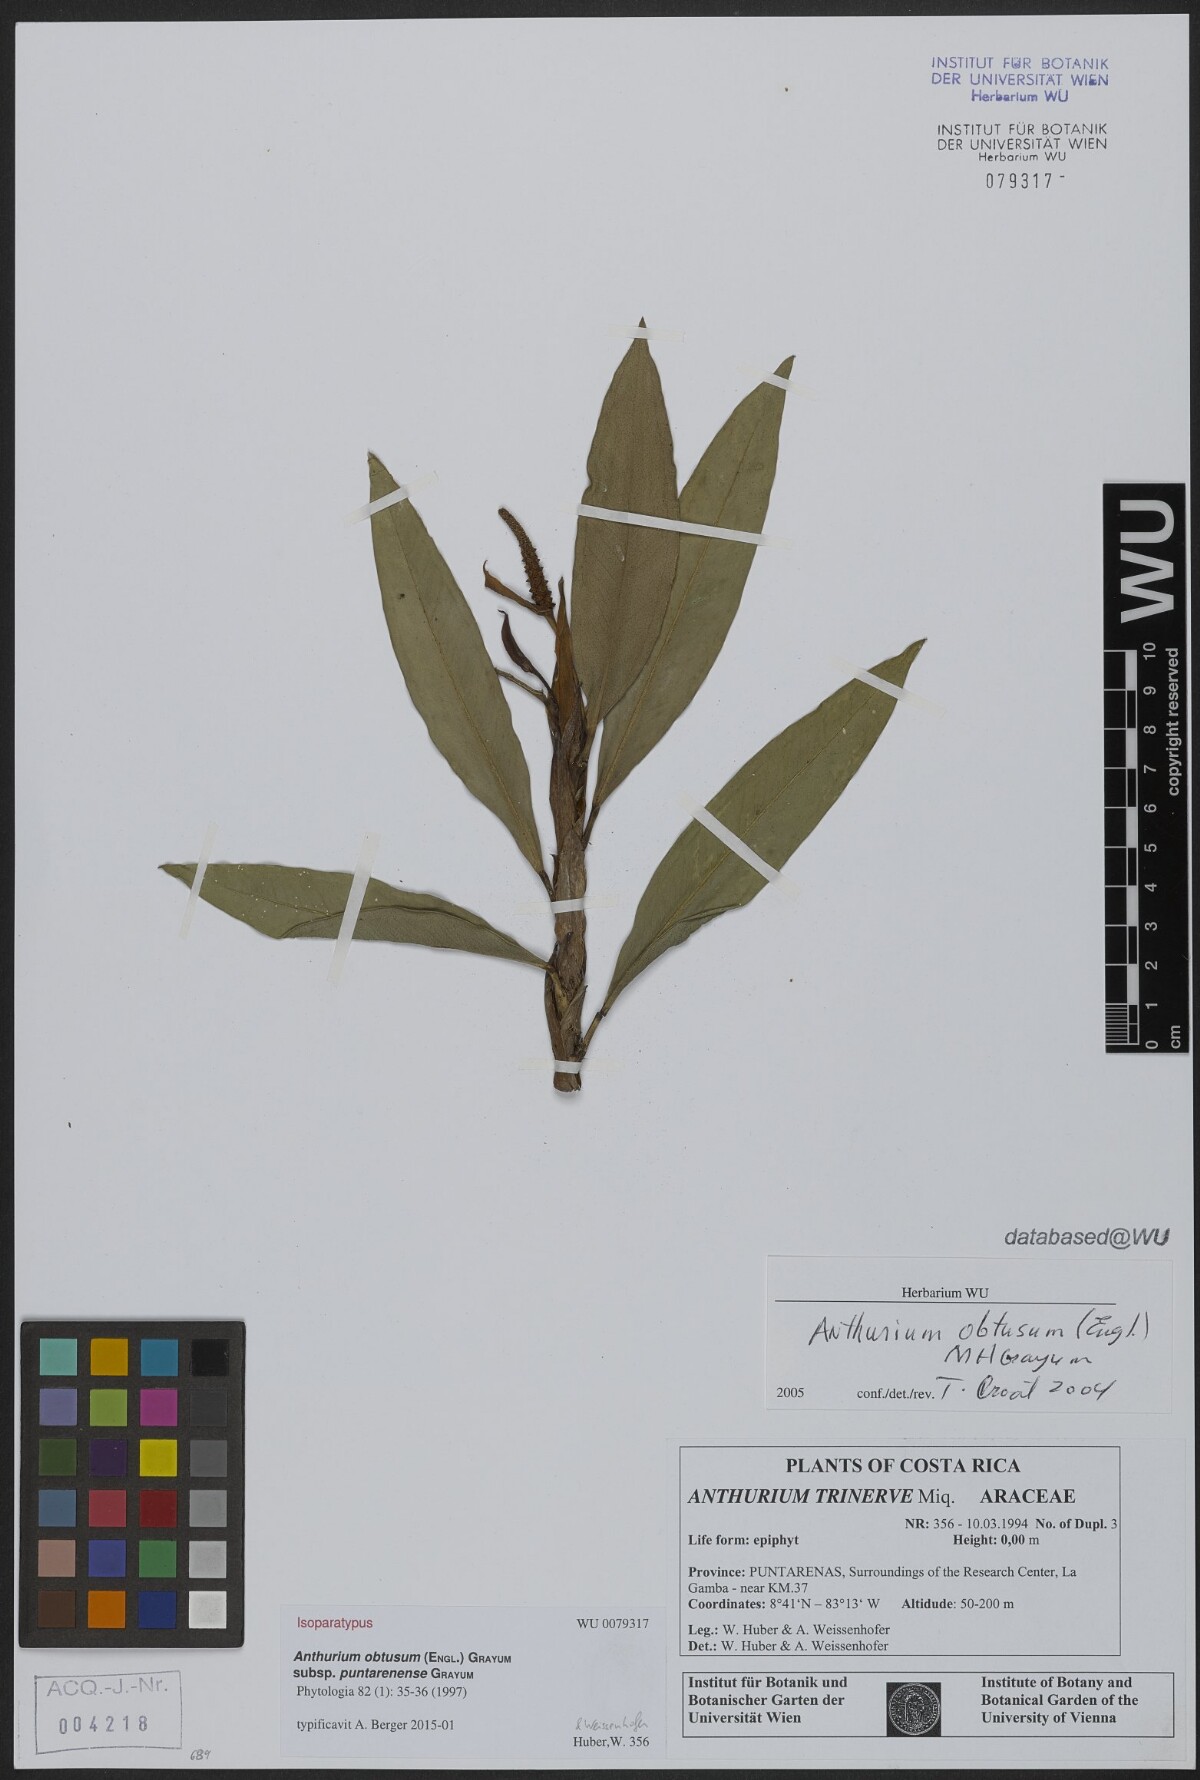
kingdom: Plantae
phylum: Tracheophyta
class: Liliopsida
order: Alismatales
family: Araceae
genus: Anthurium
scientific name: Anthurium obtusum
